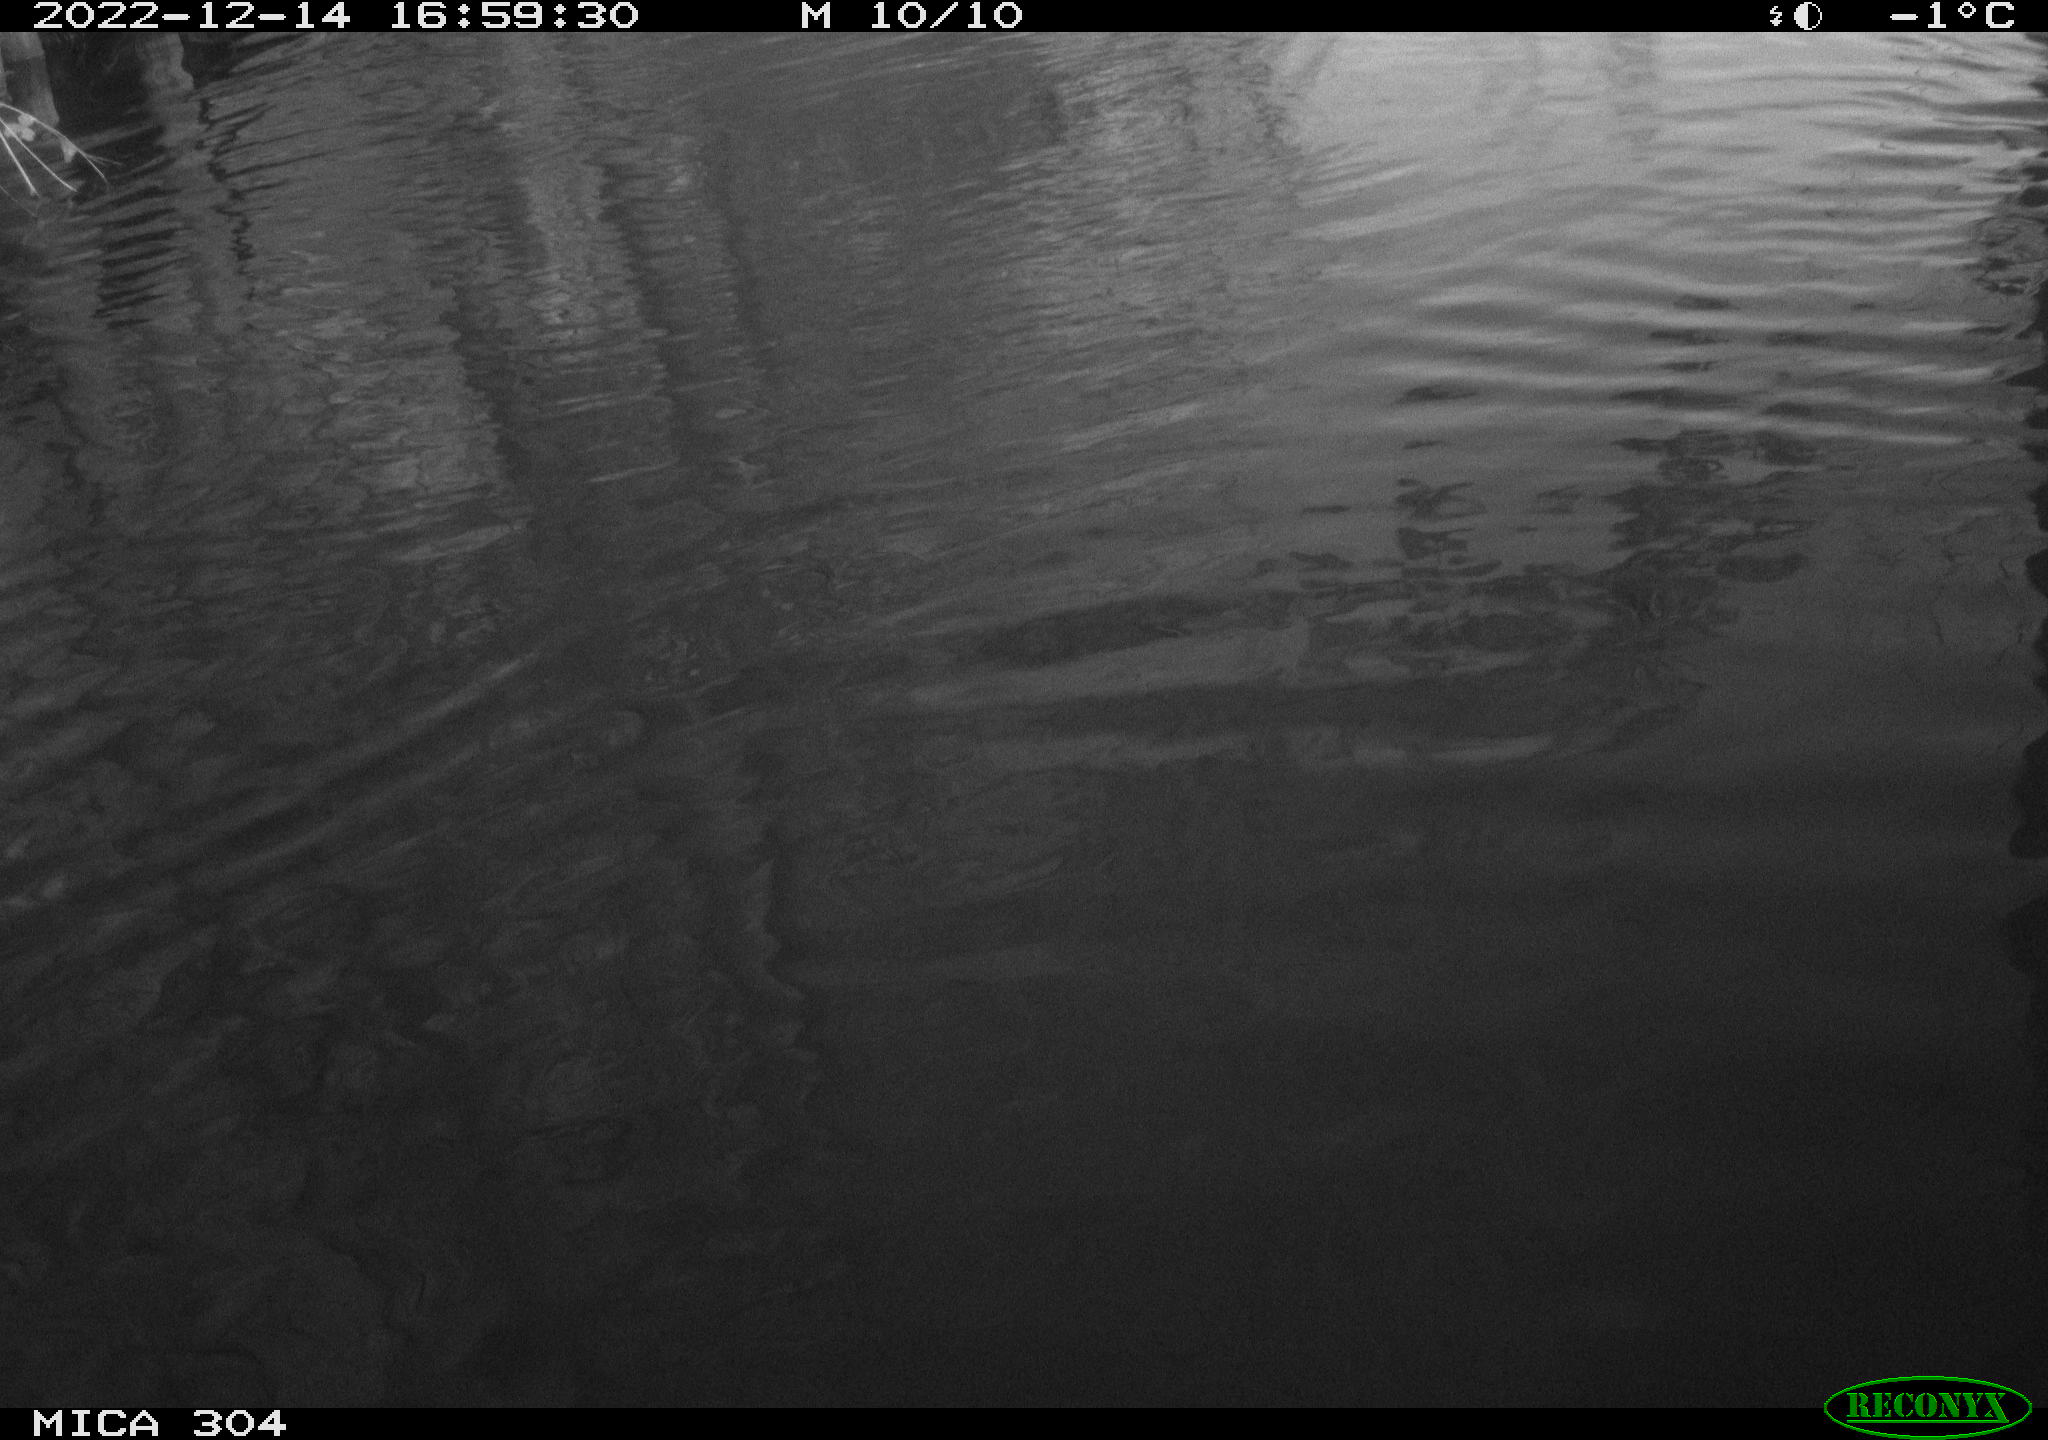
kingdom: Animalia
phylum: Chordata
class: Mammalia
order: Rodentia
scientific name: Rodentia
